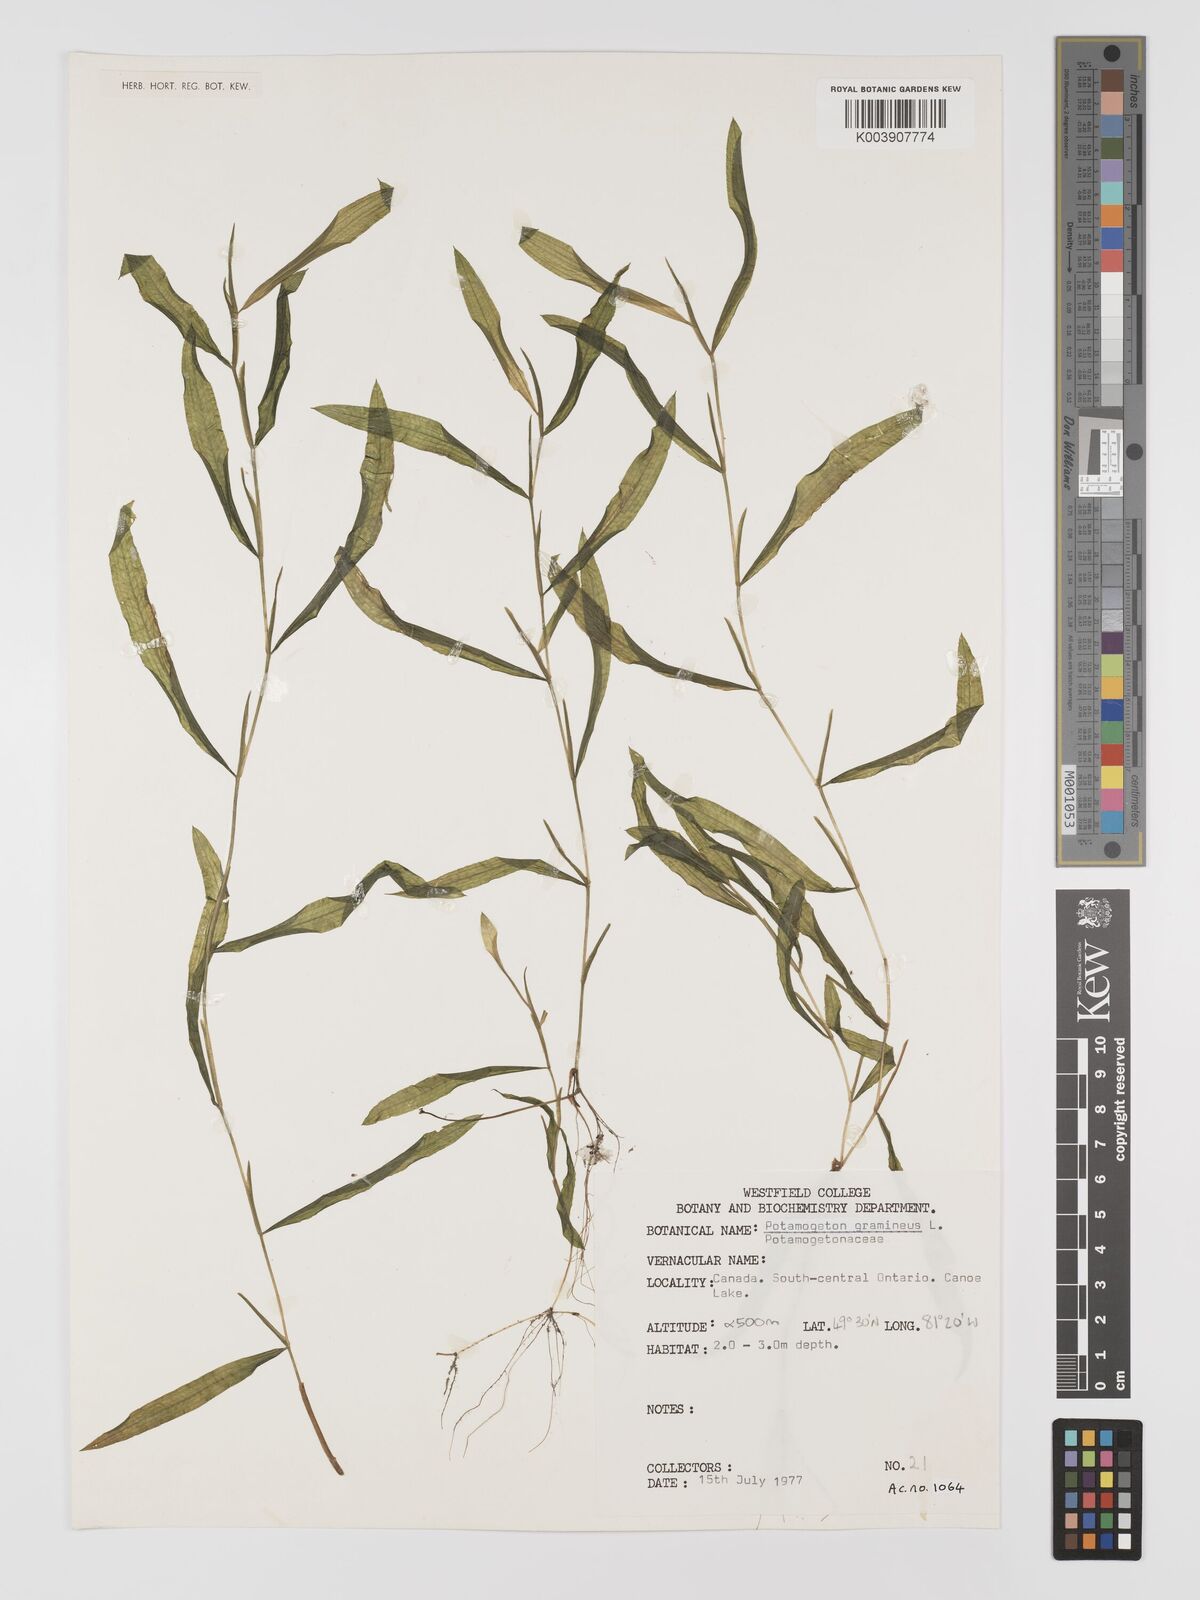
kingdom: Plantae
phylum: Tracheophyta
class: Liliopsida
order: Alismatales
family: Potamogetonaceae
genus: Potamogeton
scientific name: Potamogeton gramineus
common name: Various-leaved pondweed
